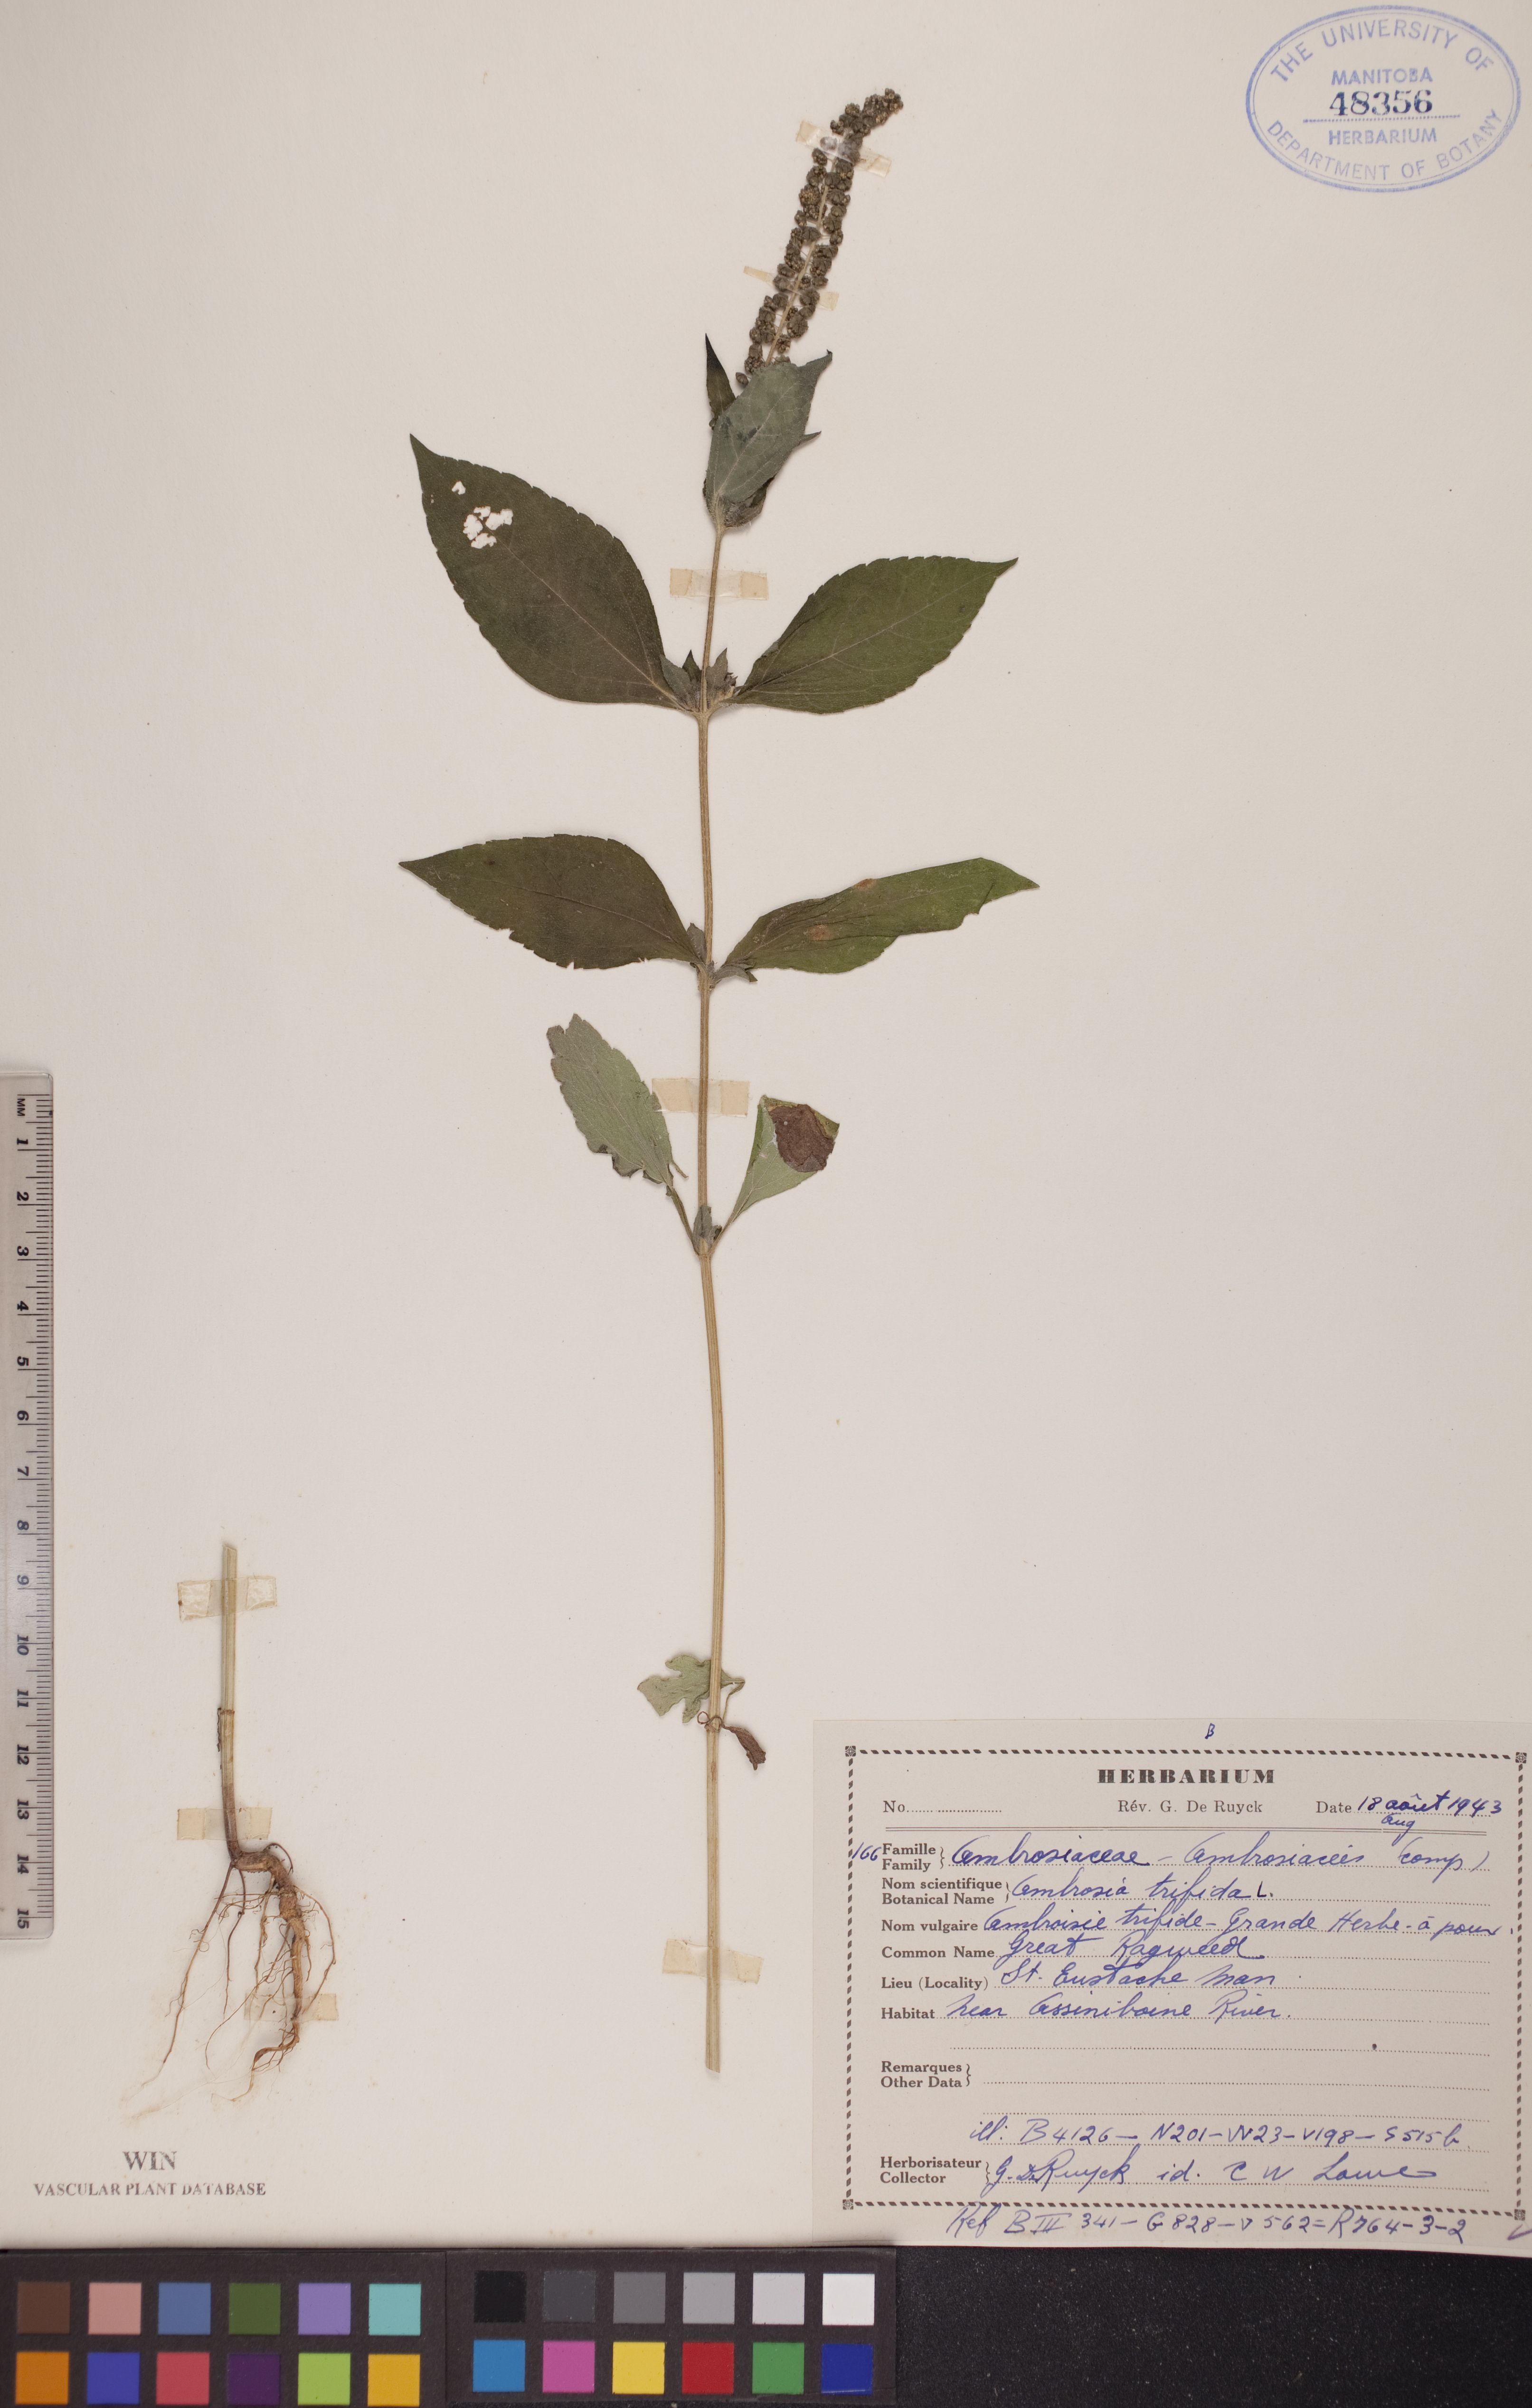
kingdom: Plantae
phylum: Tracheophyta
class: Magnoliopsida
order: Asterales
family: Asteraceae
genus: Ambrosia
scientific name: Ambrosia trifida
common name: Giant ragweed
